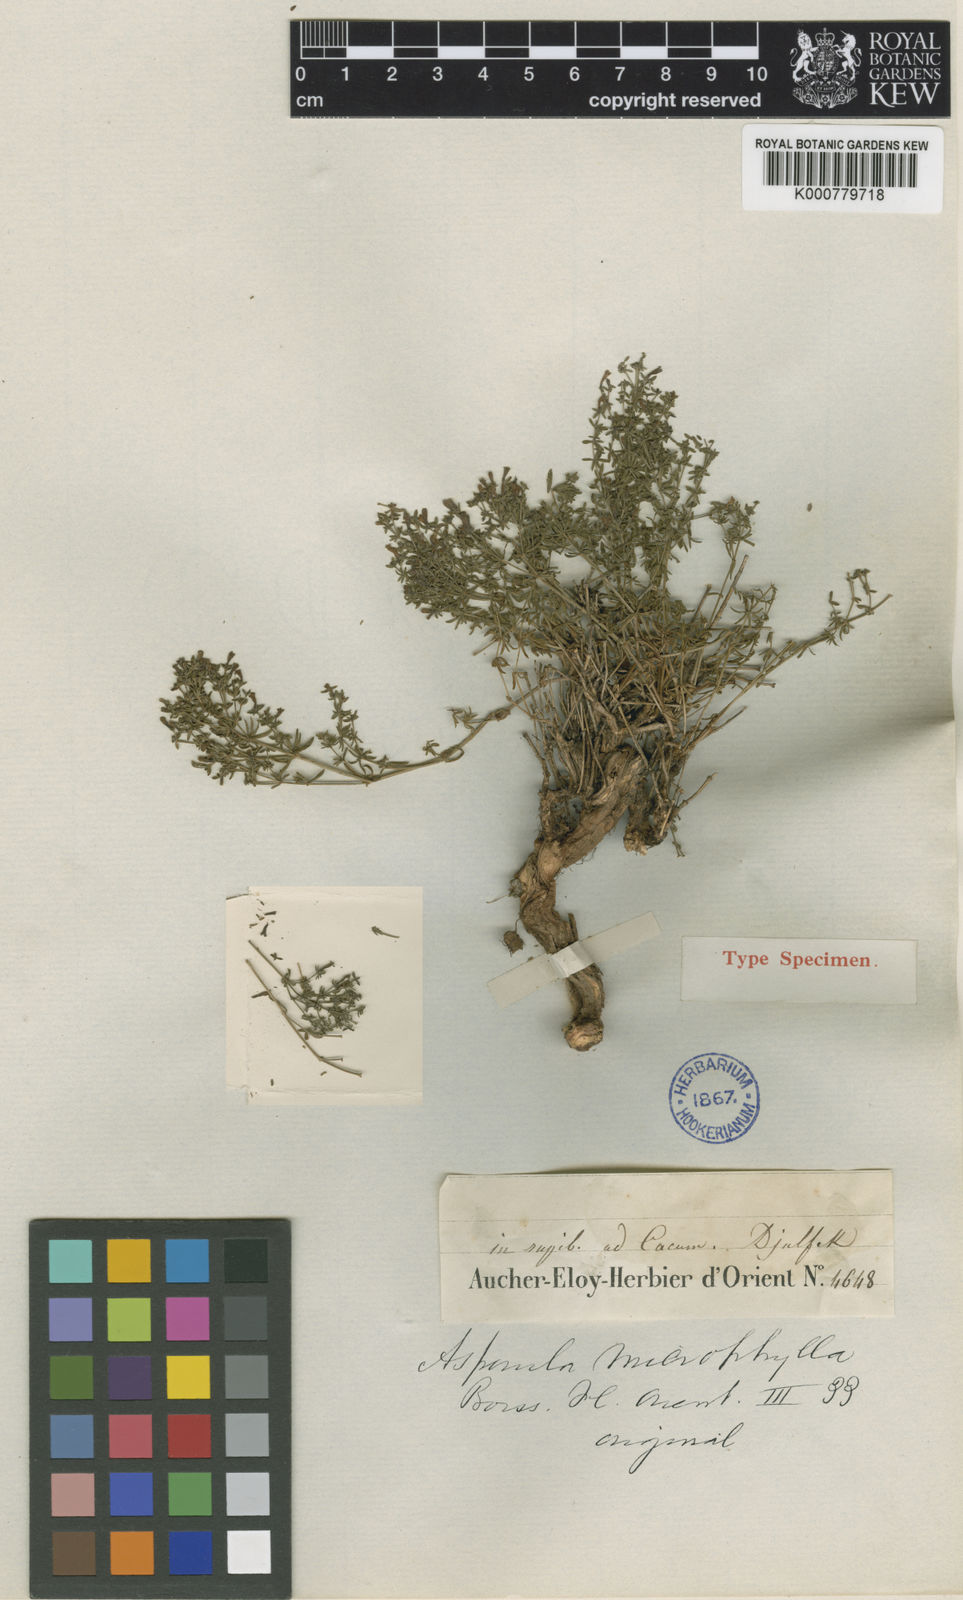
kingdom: Plantae
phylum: Tracheophyta
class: Magnoliopsida
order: Gentianales
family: Rubiaceae
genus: Thliphthisa
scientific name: Thliphthisa microphylla
